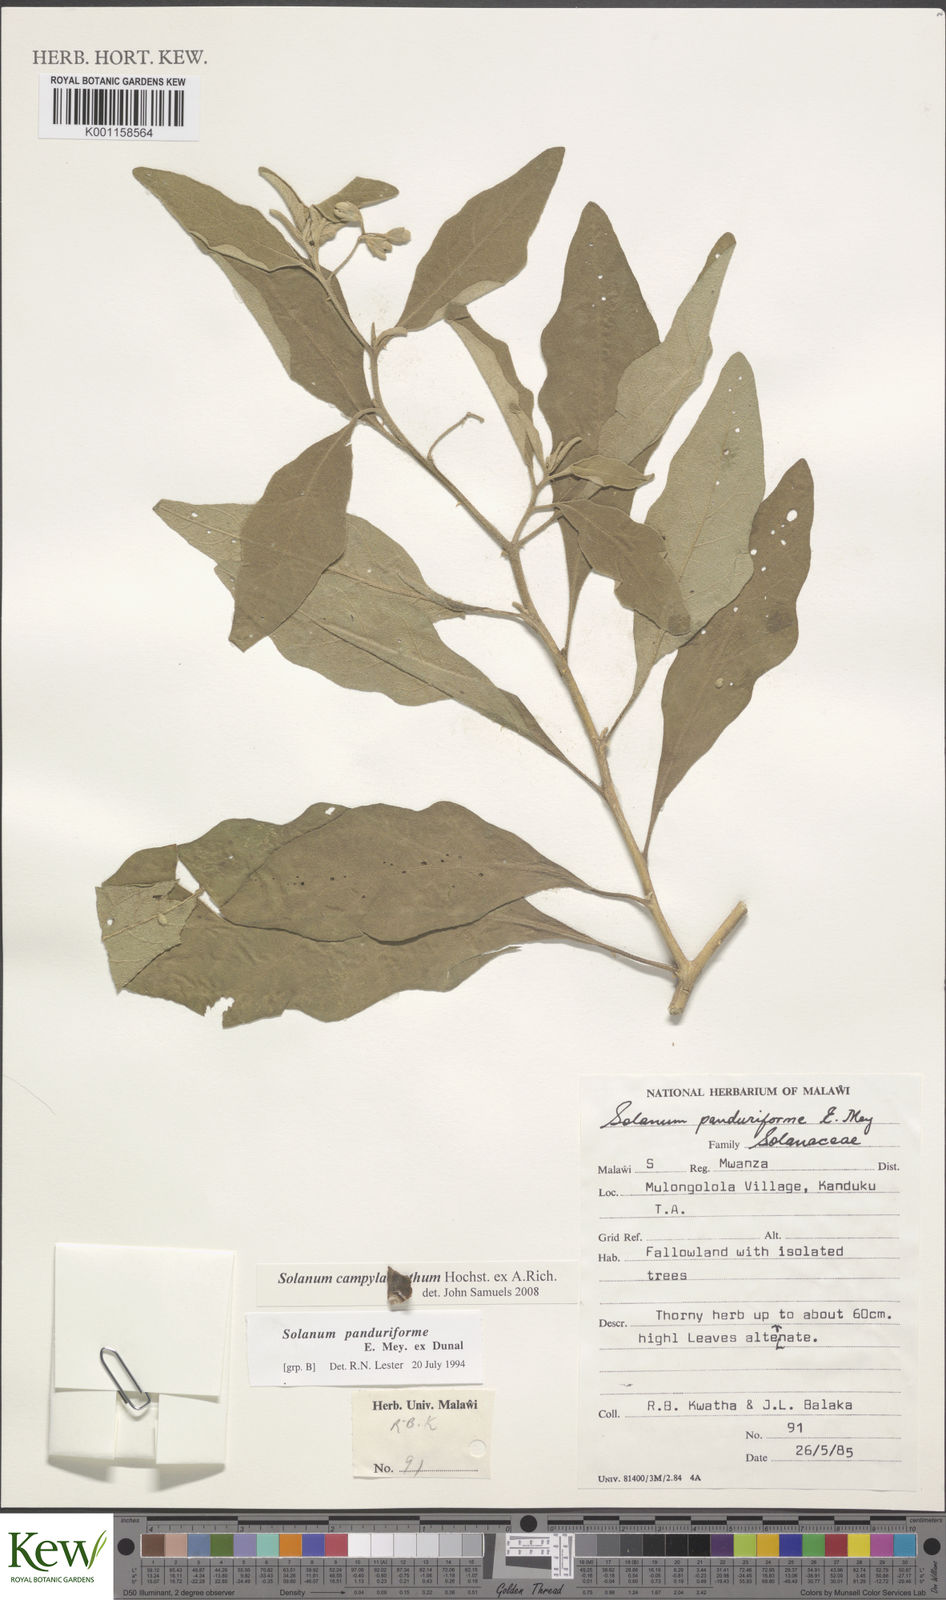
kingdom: Plantae
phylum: Tracheophyta
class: Magnoliopsida
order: Solanales
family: Solanaceae
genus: Solanum
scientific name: Solanum campylacanthum
